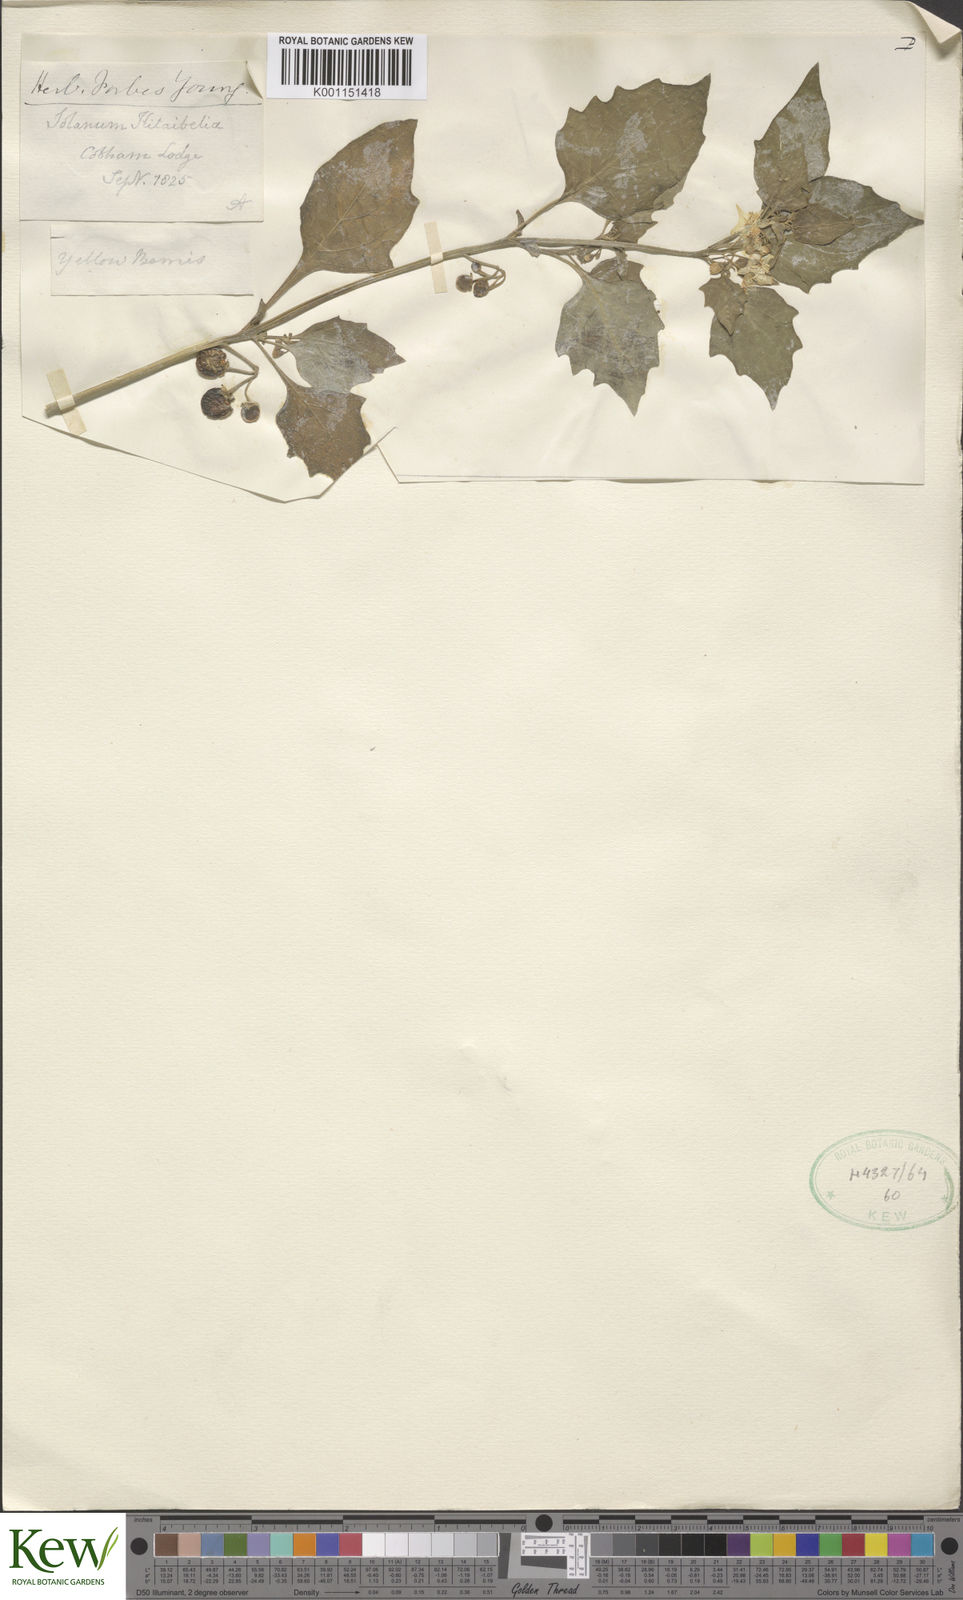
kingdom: Plantae
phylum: Tracheophyta
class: Magnoliopsida
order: Solanales
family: Solanaceae
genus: Solanum
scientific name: Solanum villosum
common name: Red nightshade
